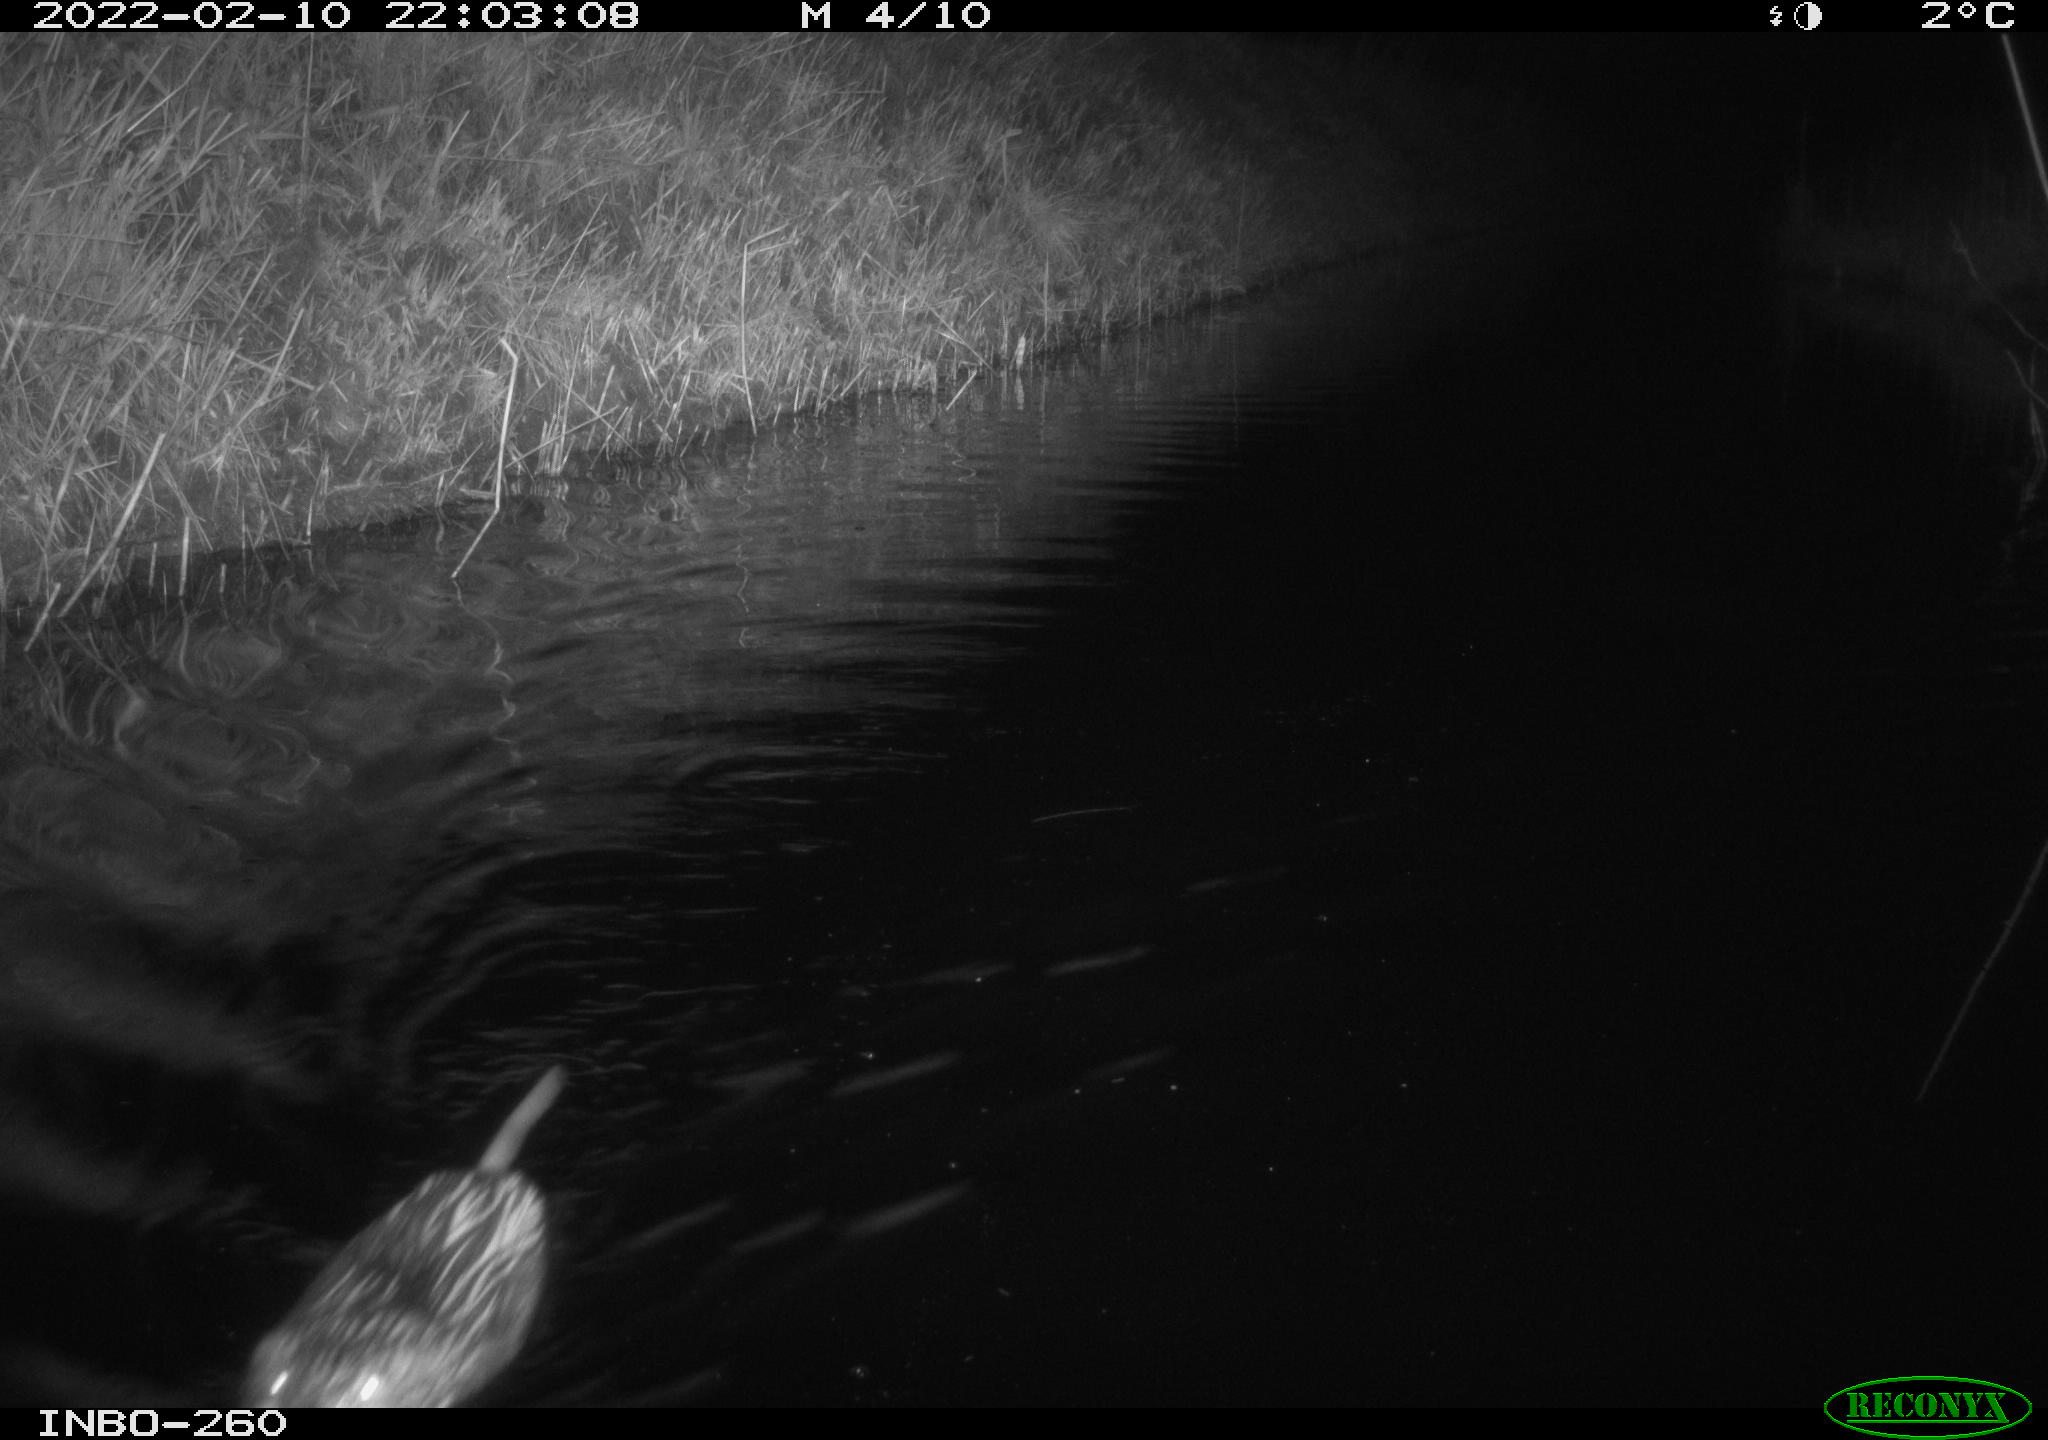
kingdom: Animalia
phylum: Chordata
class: Mammalia
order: Rodentia
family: Cricetidae
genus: Ondatra
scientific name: Ondatra zibethicus
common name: Muskrat
